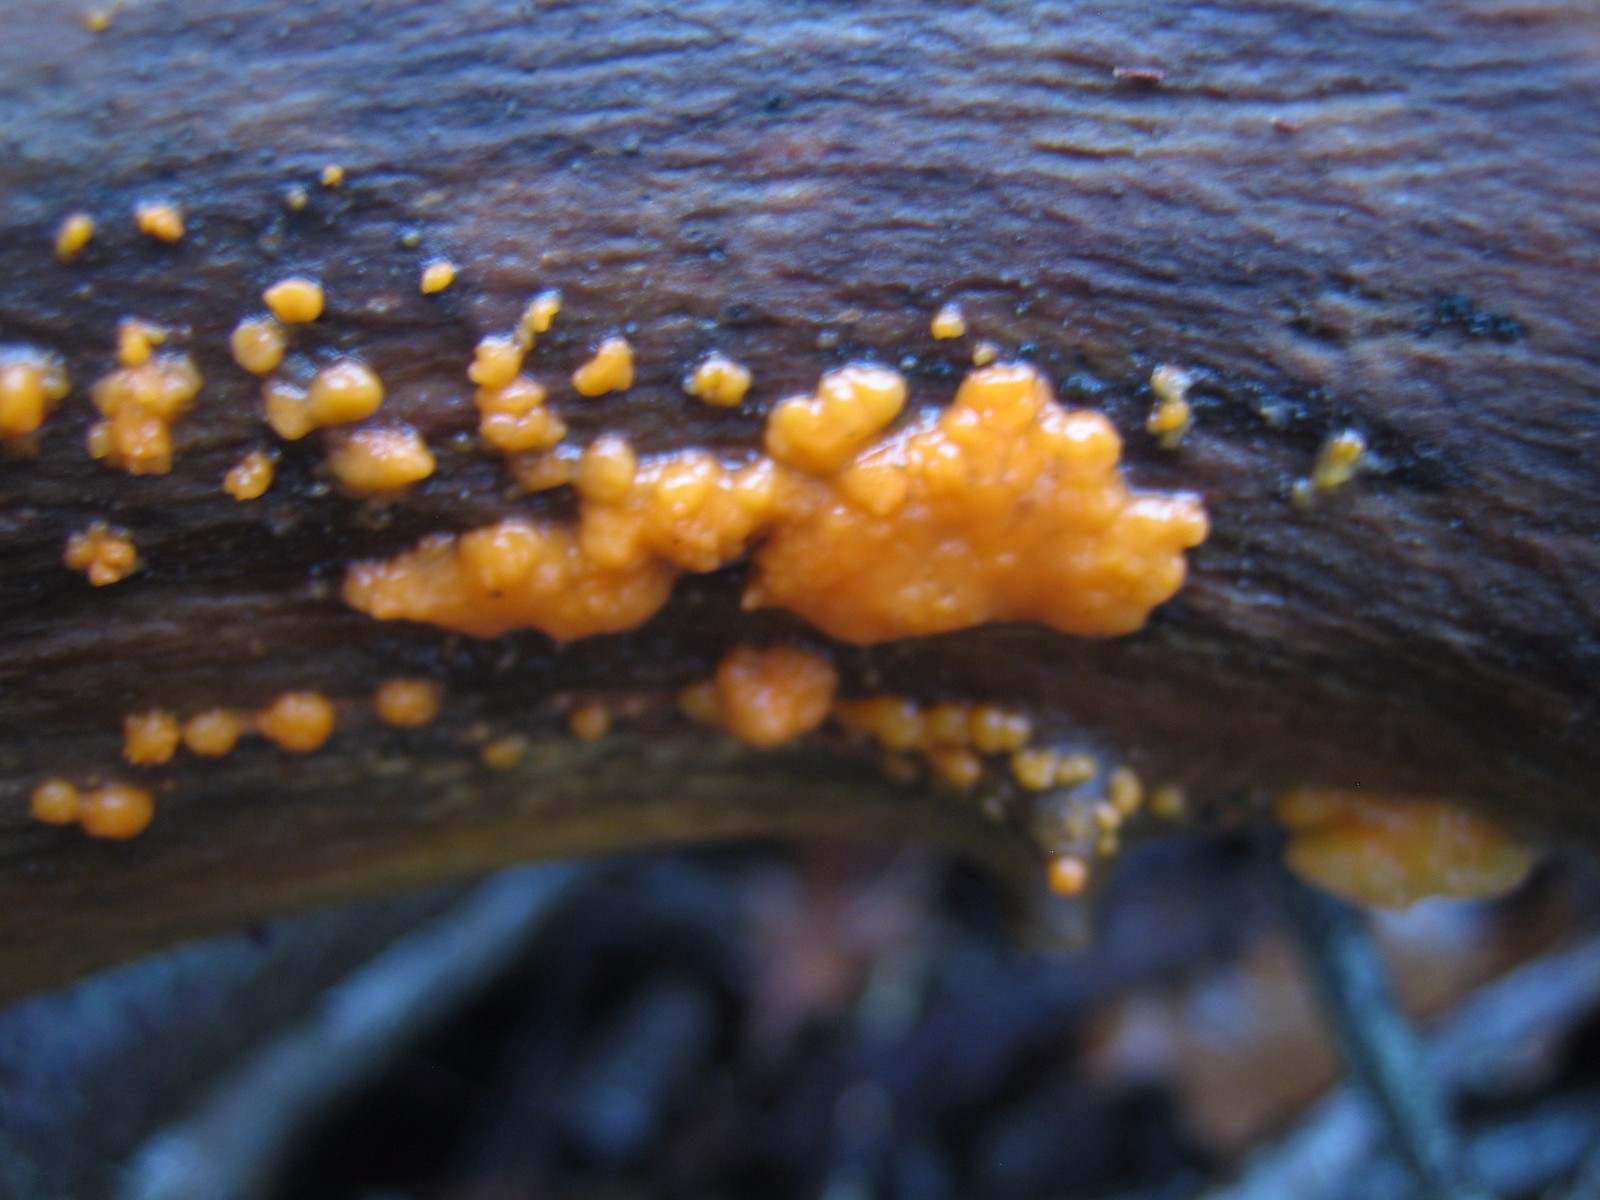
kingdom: Fungi
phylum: Basidiomycota
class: Dacrymycetes
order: Dacrymycetales
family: Dacrymycetaceae
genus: Dacrymyces
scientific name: Dacrymyces stillatus
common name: almindelig tåresvamp
